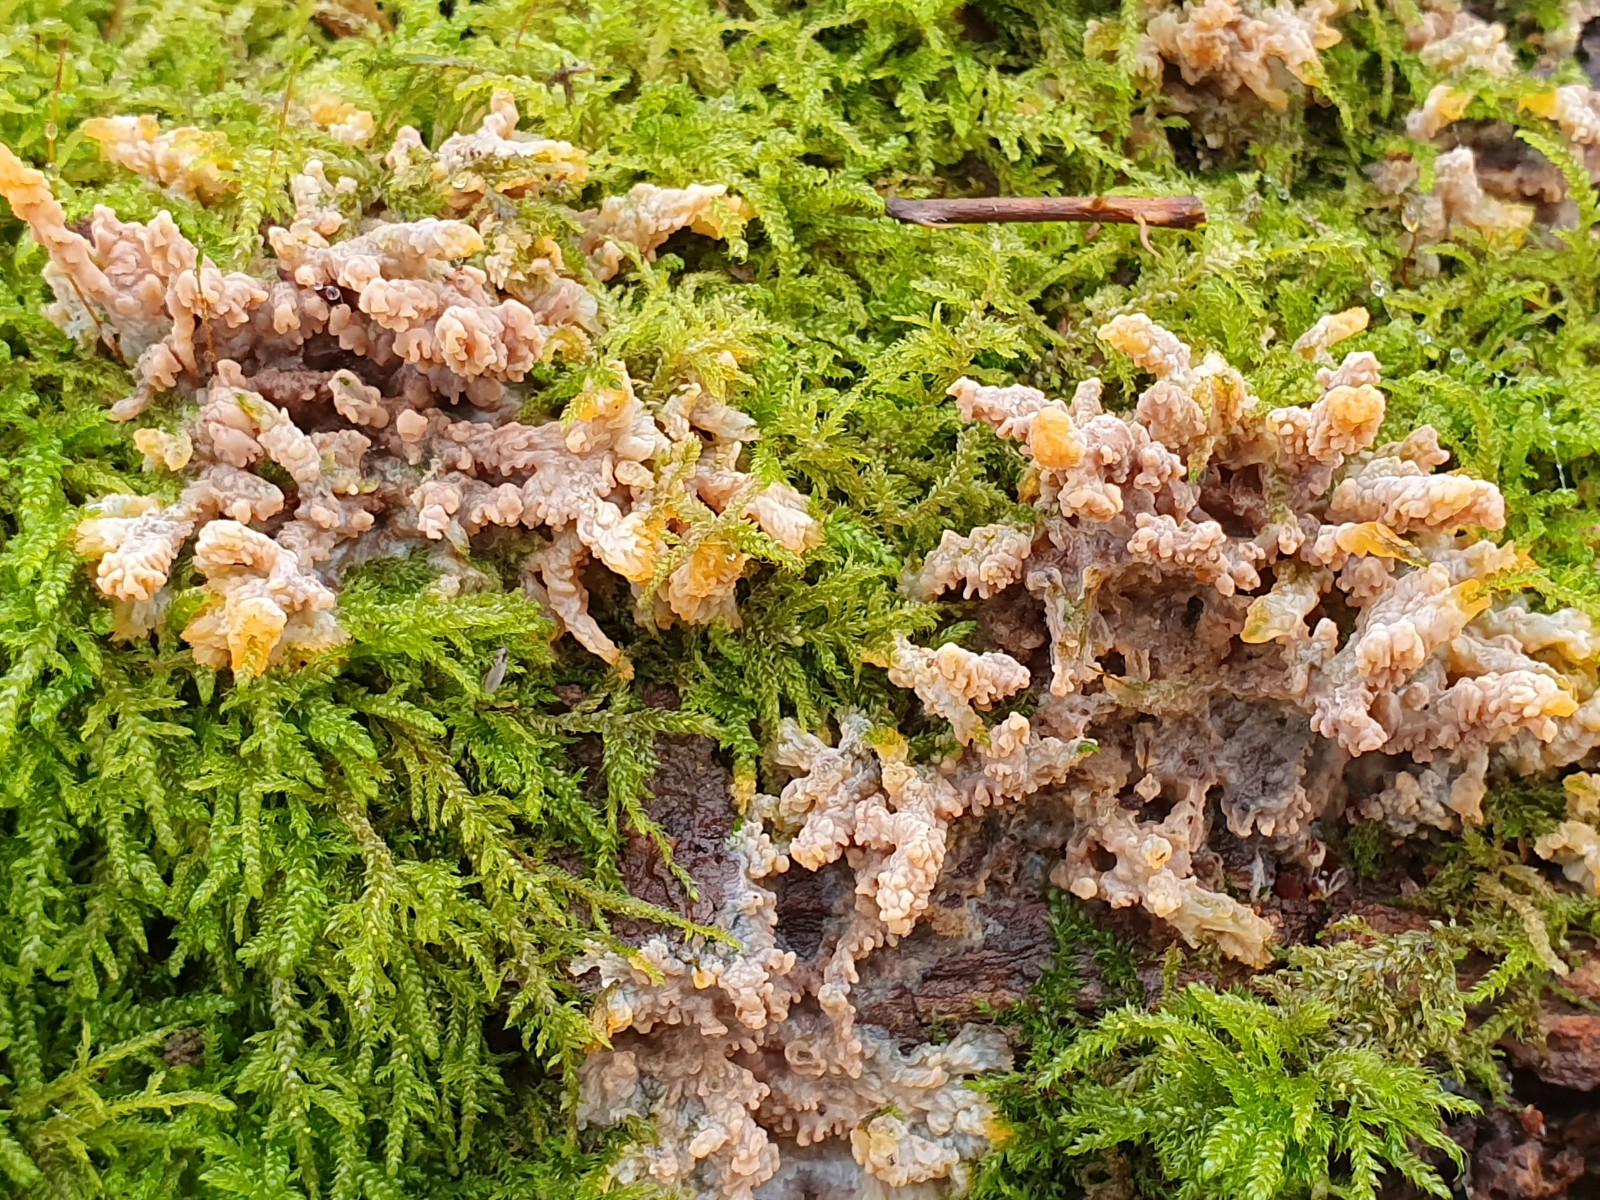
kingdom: Fungi
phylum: Basidiomycota
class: Agaricomycetes
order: Polyporales
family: Meruliaceae
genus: Phlebia
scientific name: Phlebia radiata
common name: stråle-åresvamp
